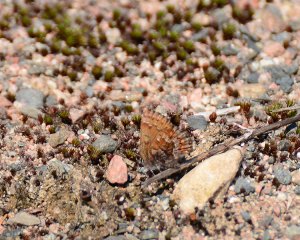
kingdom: Animalia
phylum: Arthropoda
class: Insecta
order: Lepidoptera
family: Lycaenidae
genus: Incisalia
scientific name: Incisalia niphon
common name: Eastern Pine Elfin
